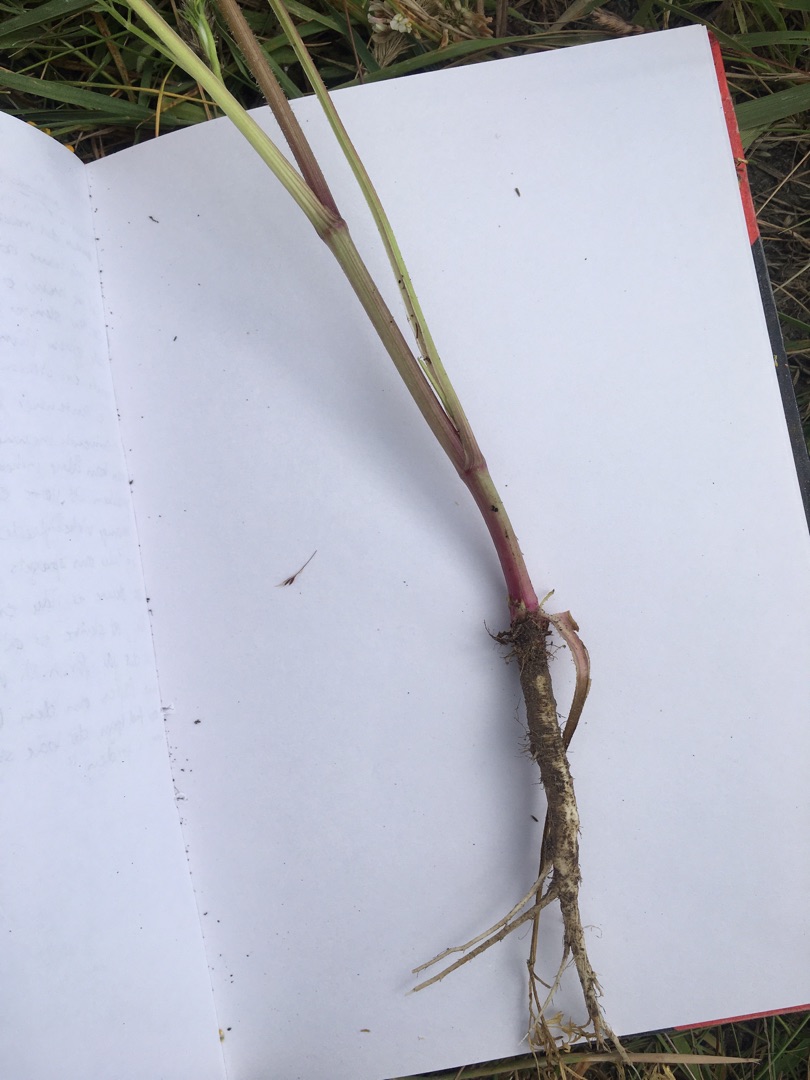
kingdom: Plantae
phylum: Tracheophyta
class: Magnoliopsida
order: Apiales
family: Apiaceae
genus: Daucus
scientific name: Daucus carota
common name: Gulerod
